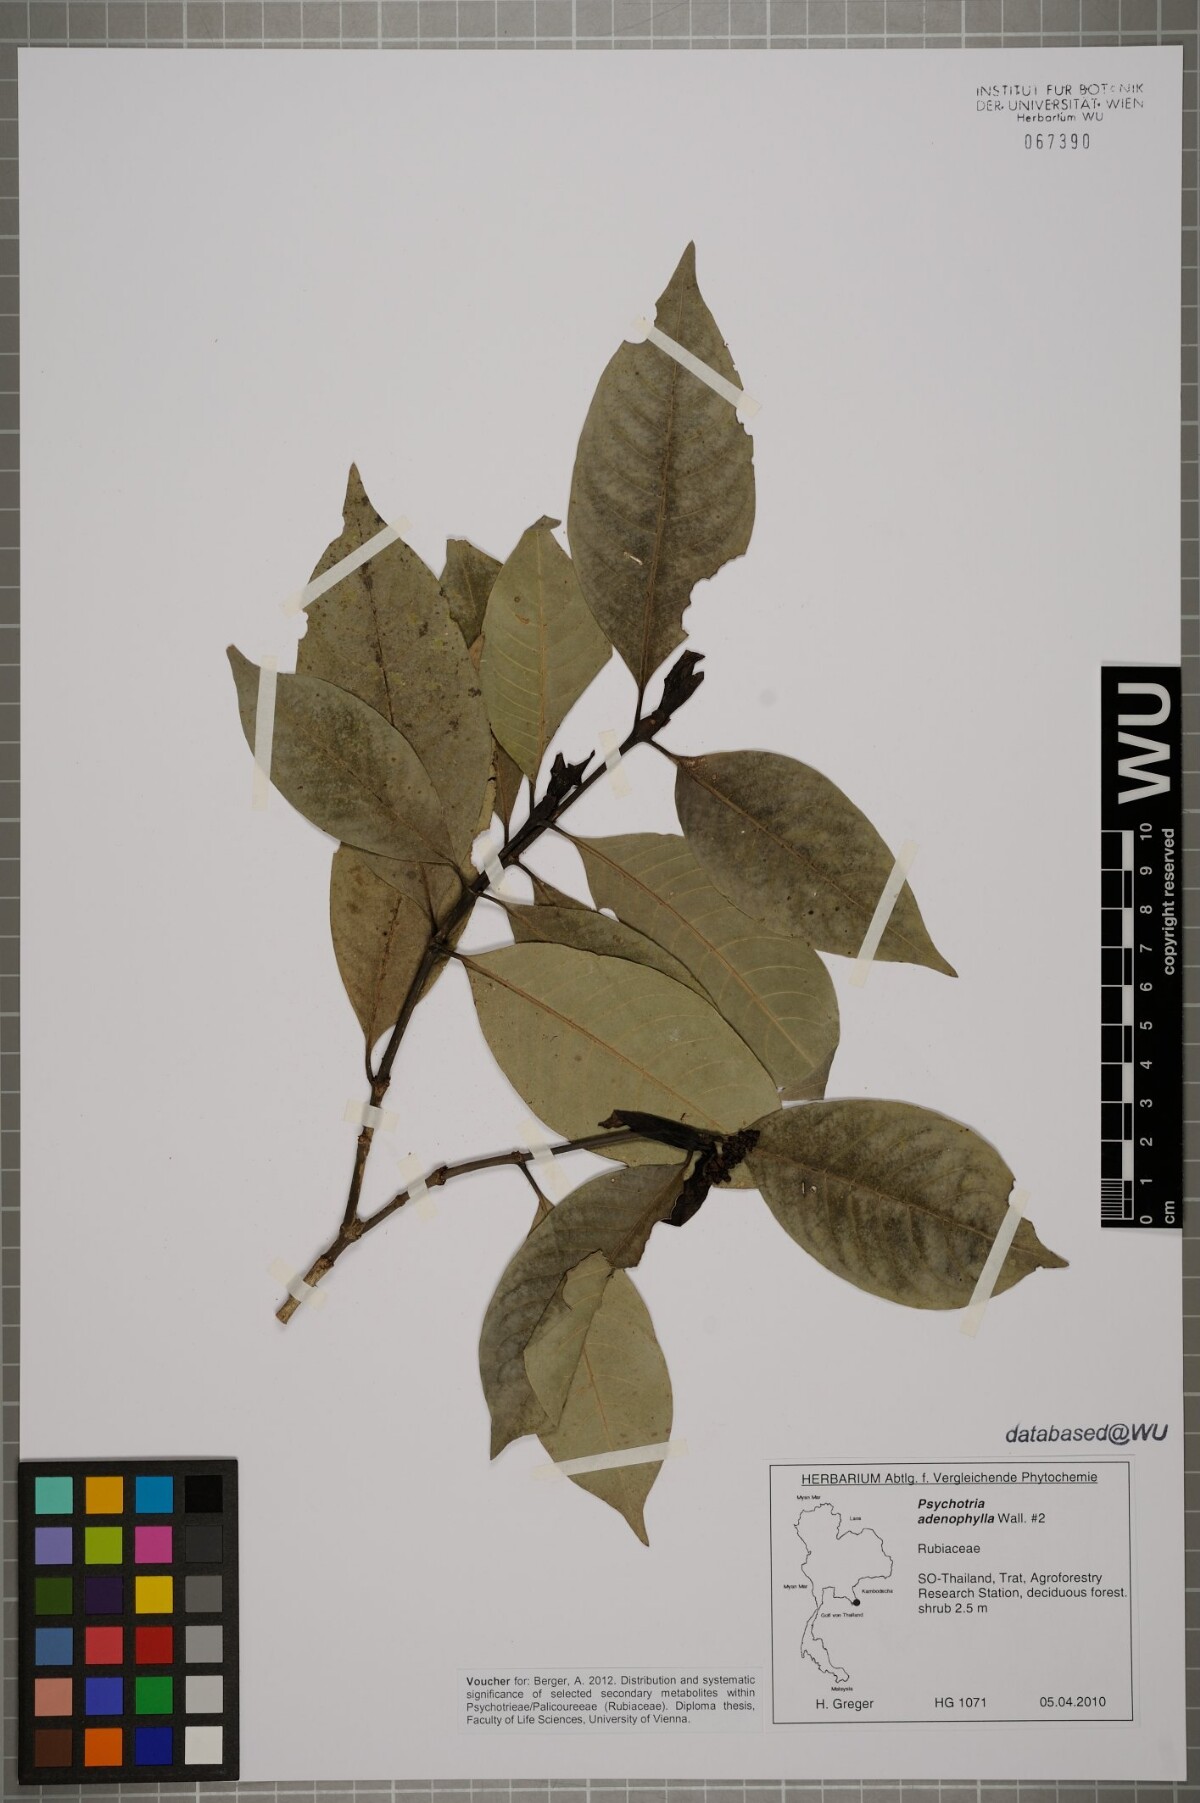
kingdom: Plantae
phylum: Tracheophyta
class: Magnoliopsida
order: Gentianales
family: Rubiaceae
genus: Psychotria
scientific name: Psychotria adenophylla
